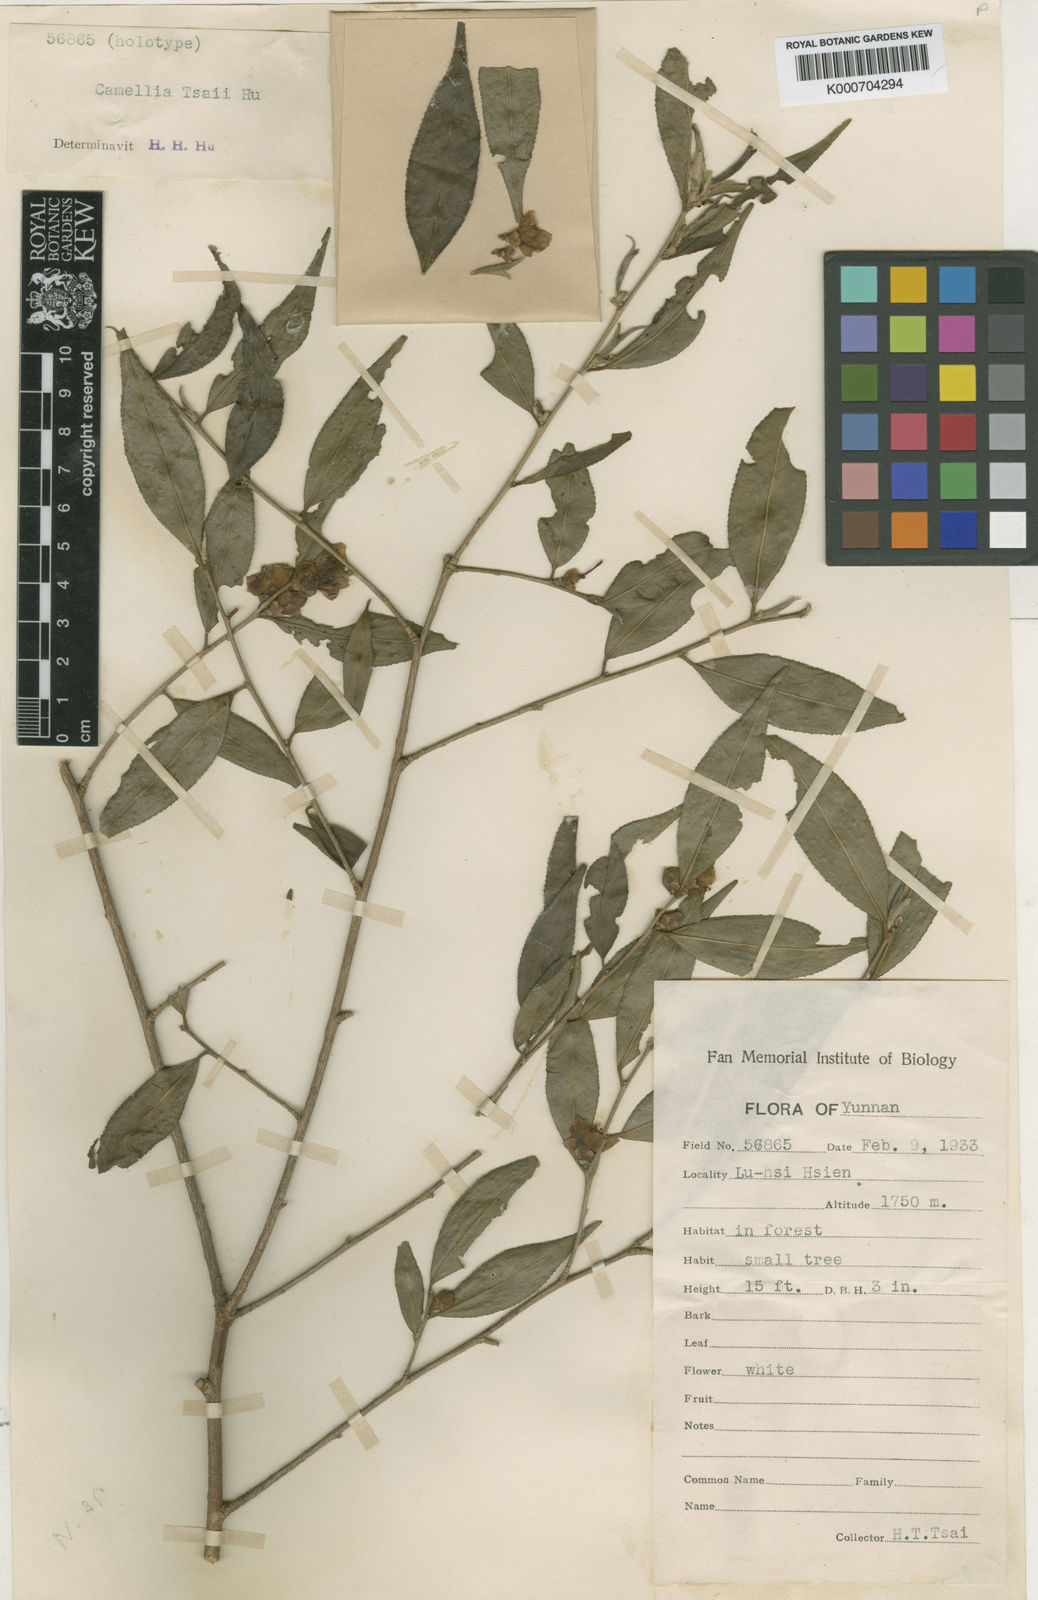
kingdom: Plantae
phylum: Tracheophyta
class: Magnoliopsida
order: Ericales
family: Theaceae
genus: Camellia
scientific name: Camellia tsaii
